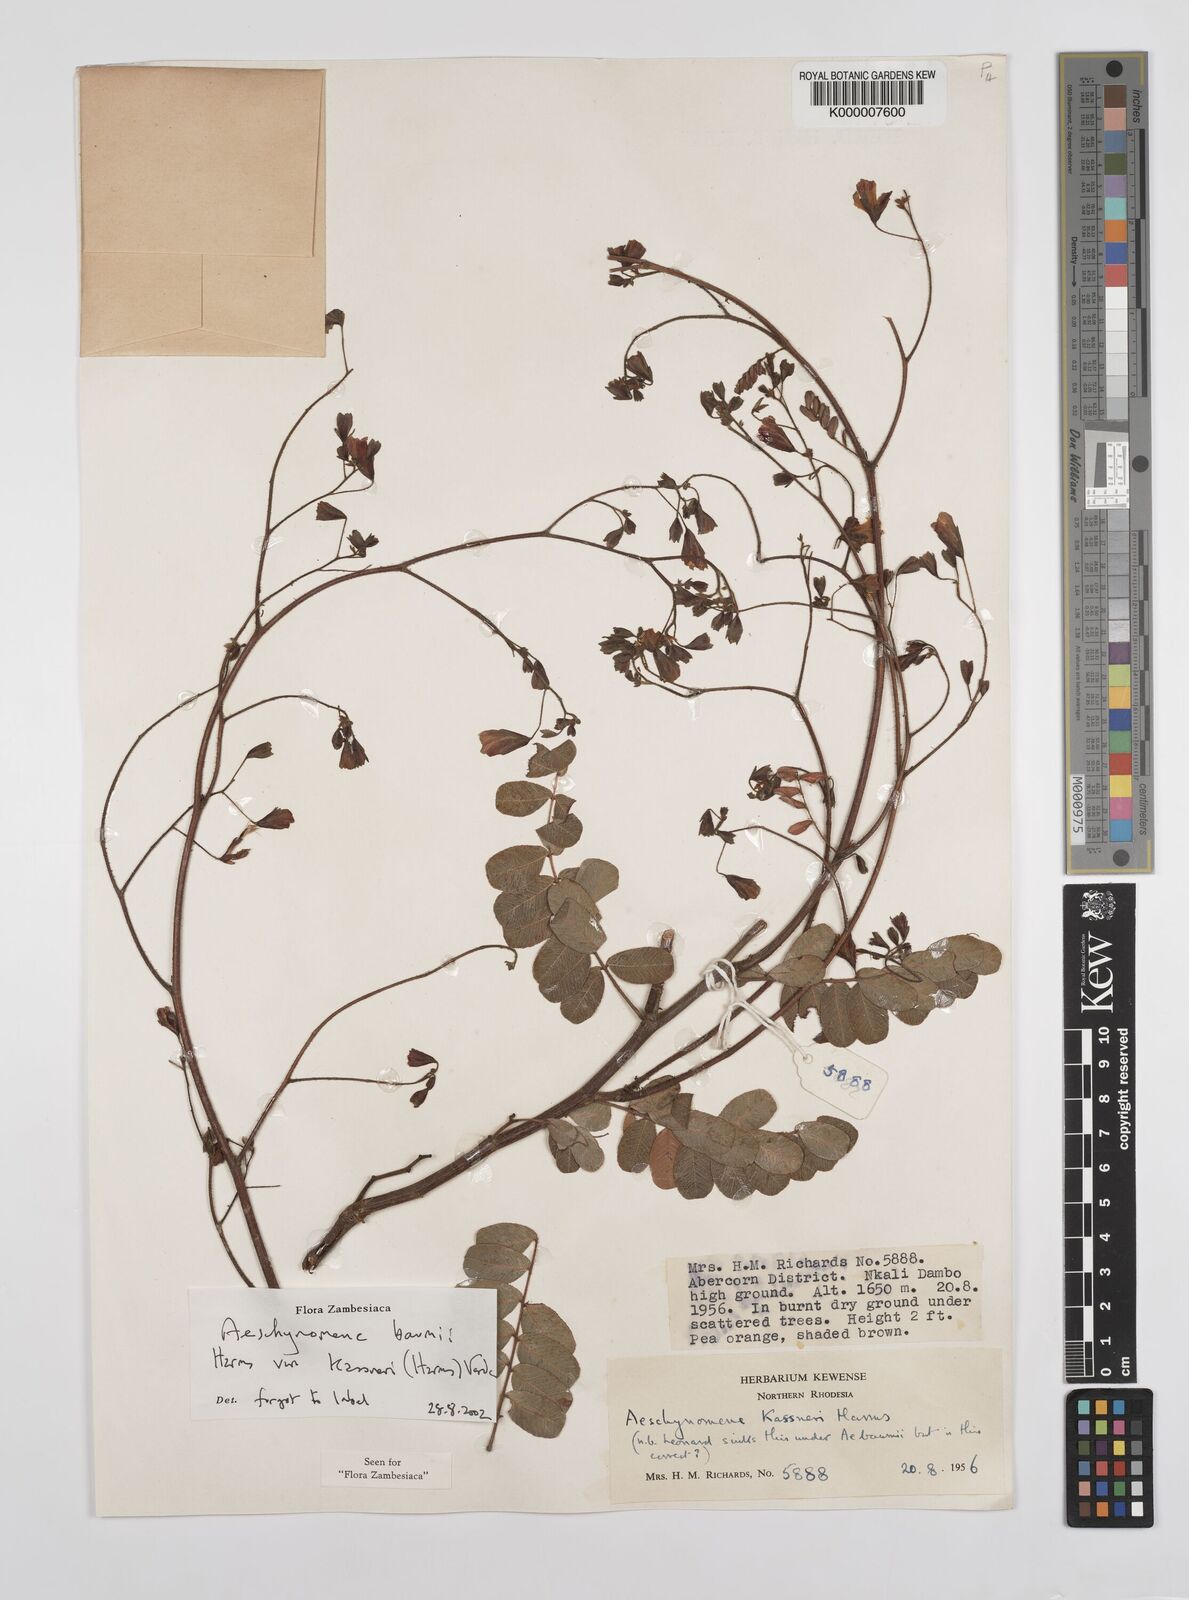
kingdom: Plantae
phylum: Tracheophyta
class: Magnoliopsida
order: Fabales
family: Fabaceae
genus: Aeschynomene
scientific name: Aeschynomene baumii
